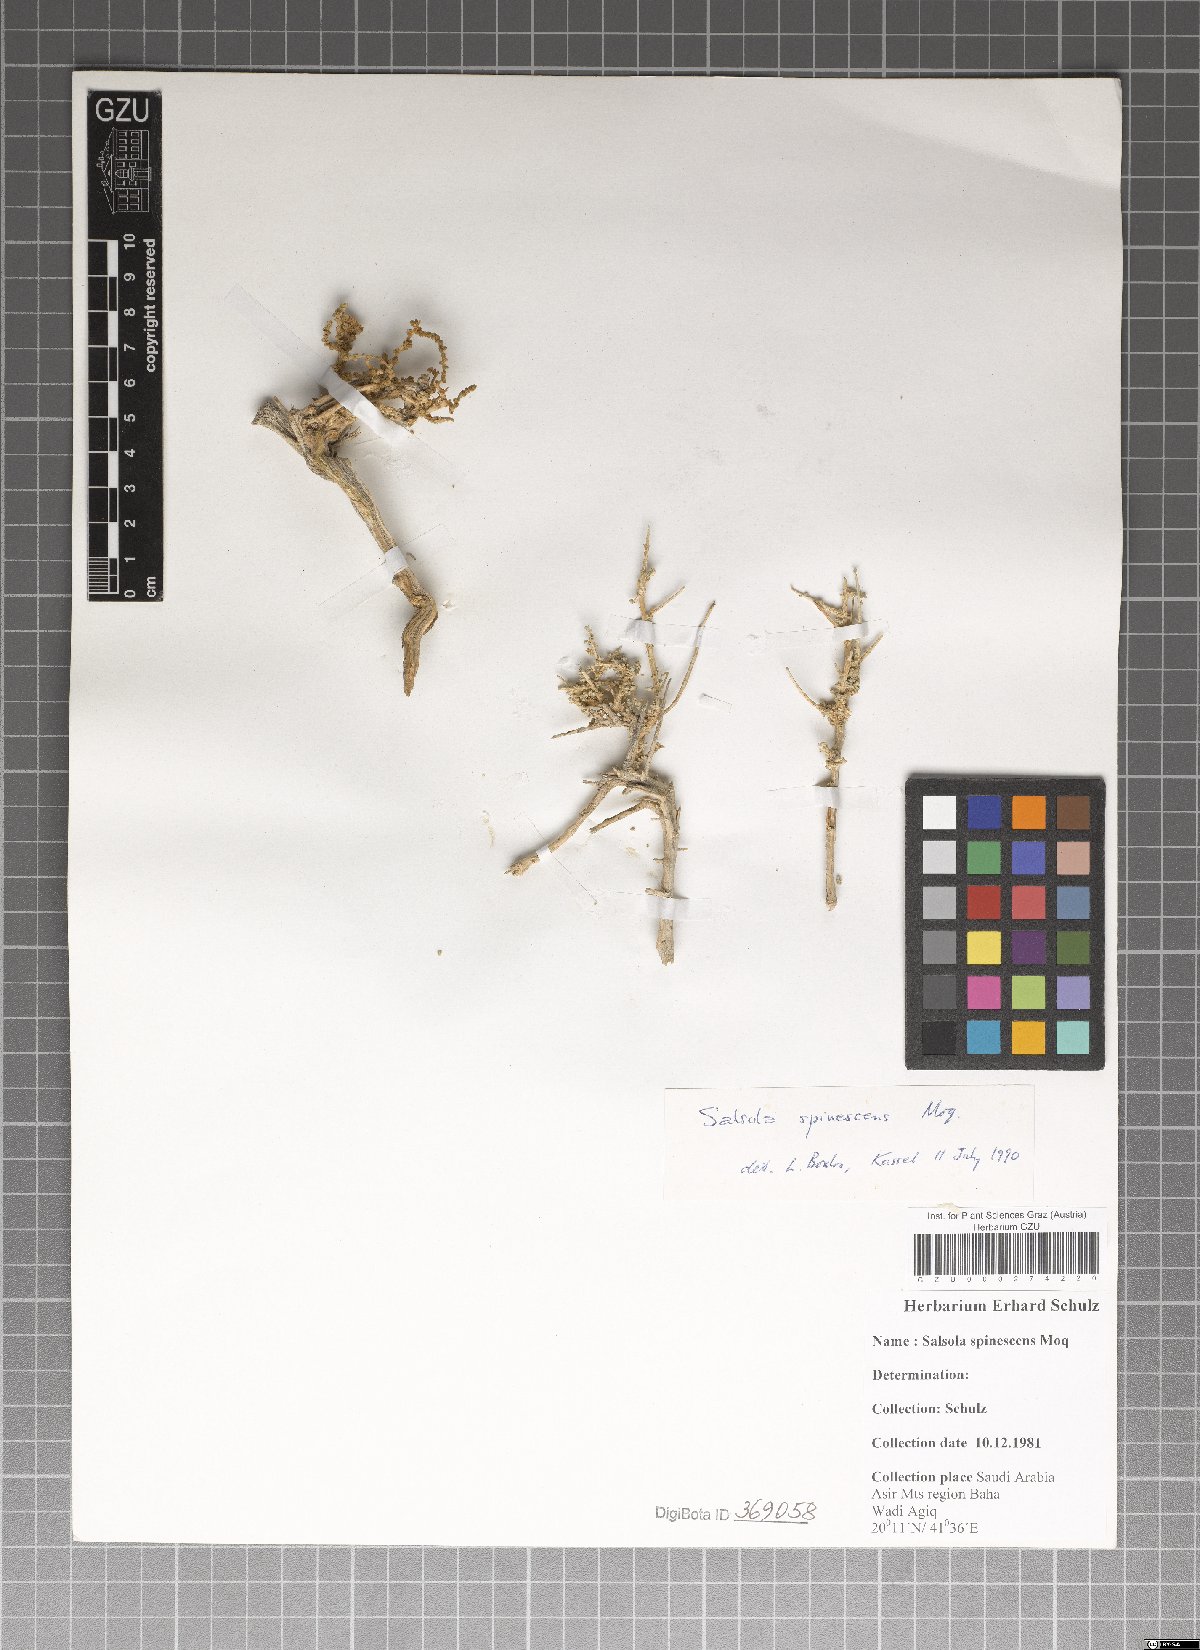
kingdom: Plantae
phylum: Tracheophyta
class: Magnoliopsida
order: Caryophyllales
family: Amaranthaceae
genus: Caroxylon
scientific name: Caroxylon spinescens
